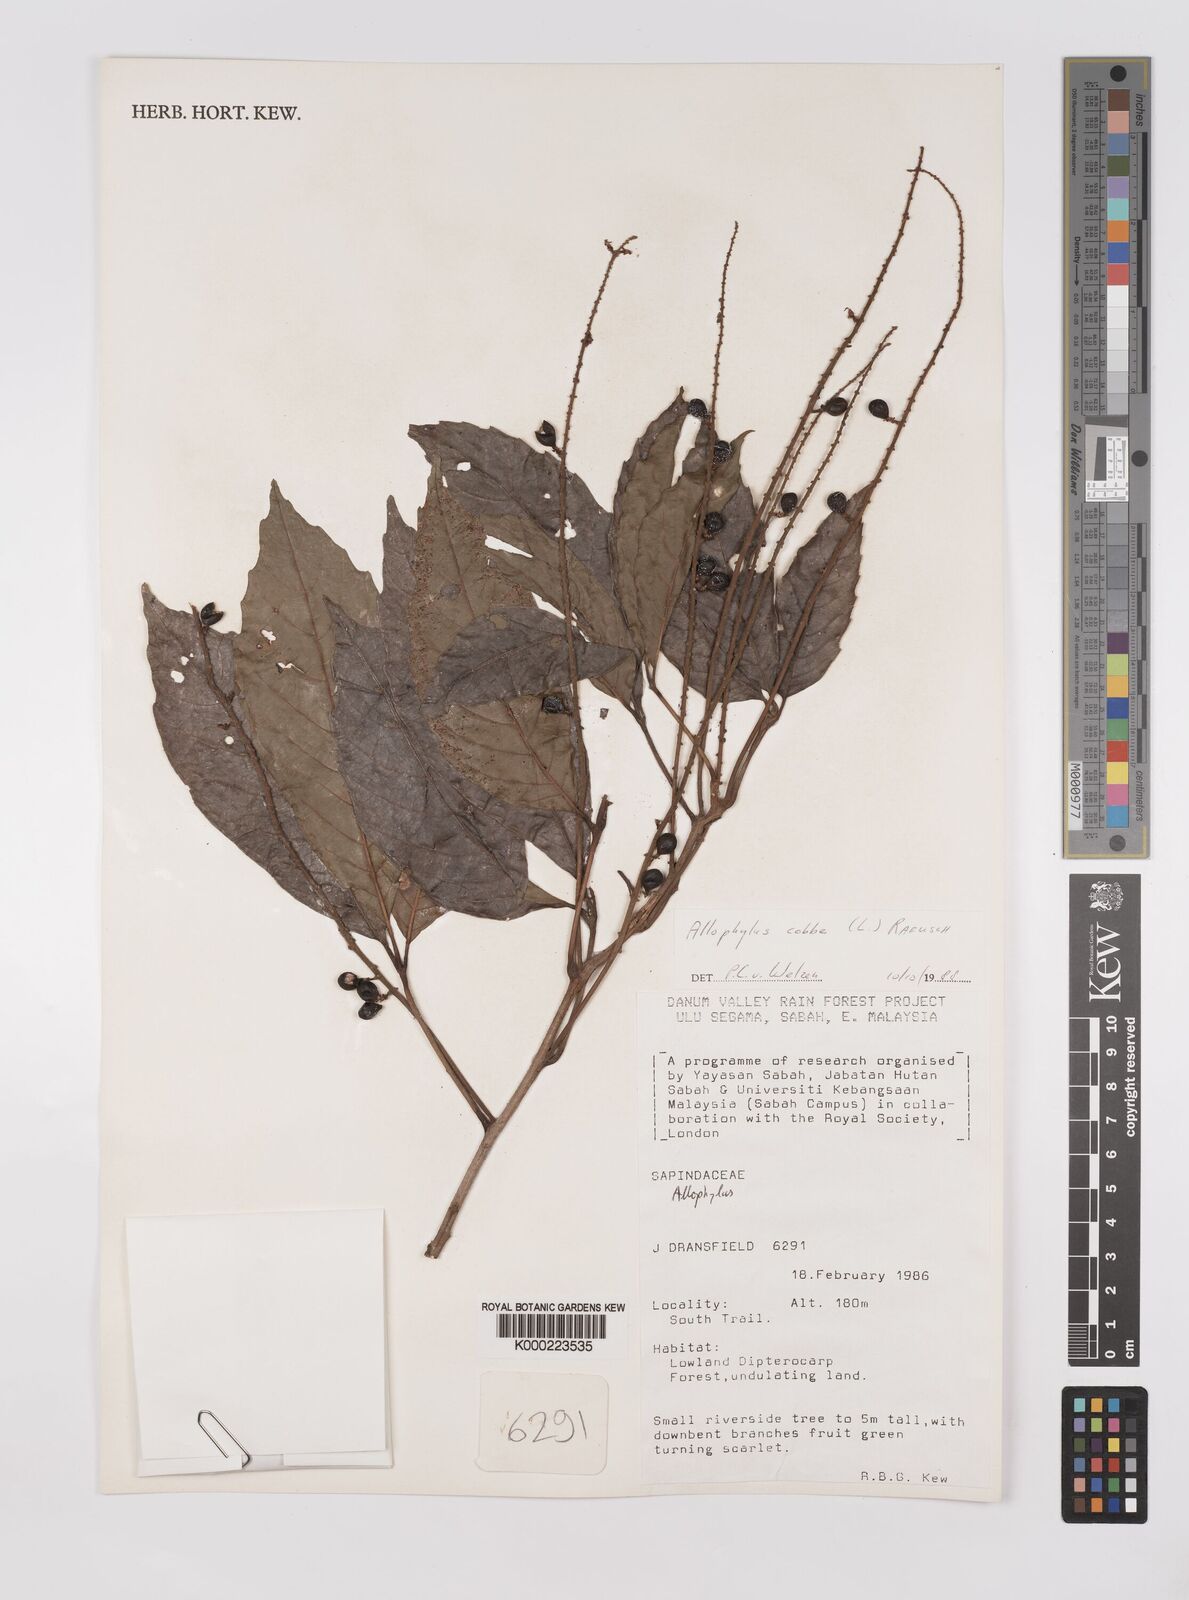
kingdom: Plantae
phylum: Tracheophyta
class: Magnoliopsida
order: Sapindales
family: Sapindaceae
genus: Allophylus
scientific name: Allophylus
